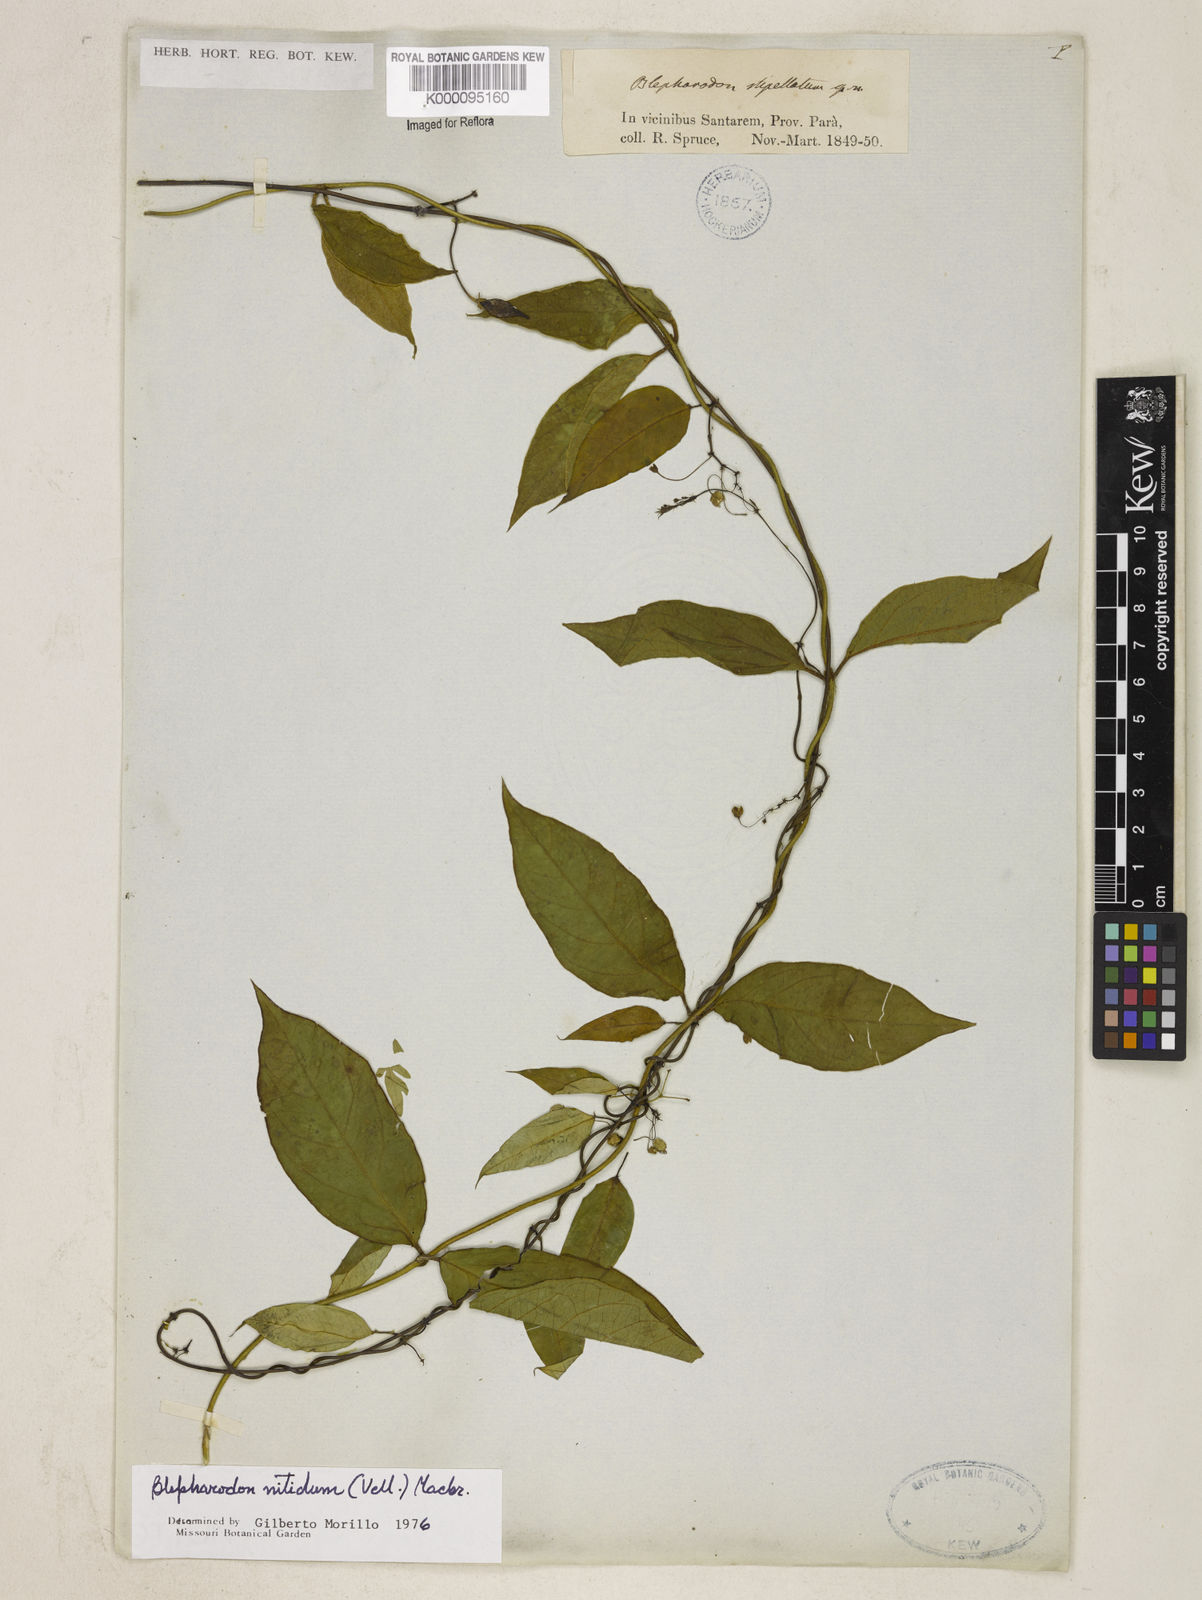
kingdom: Plantae
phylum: Tracheophyta
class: Magnoliopsida
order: Gentianales
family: Apocynaceae
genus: Blepharodon
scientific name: Blepharodon pictum
